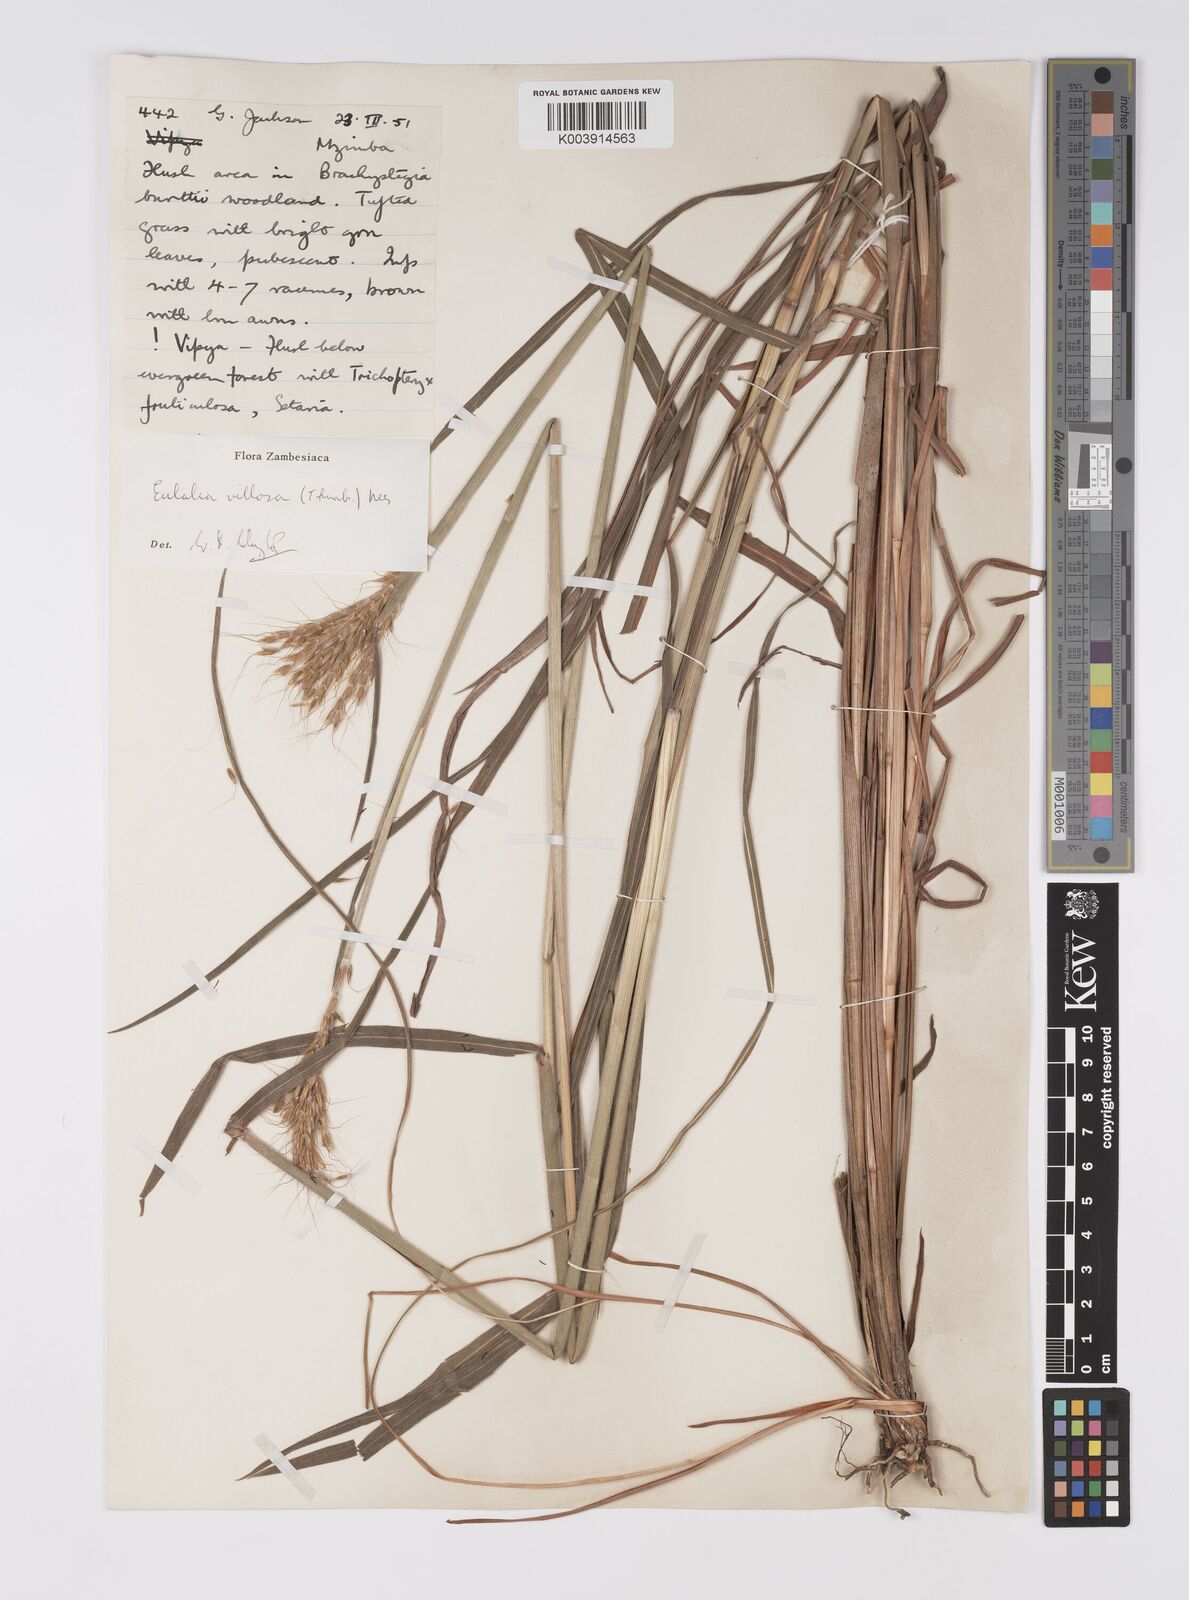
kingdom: Plantae
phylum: Tracheophyta
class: Liliopsida
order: Poales
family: Poaceae
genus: Eulalia
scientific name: Eulalia villosa
